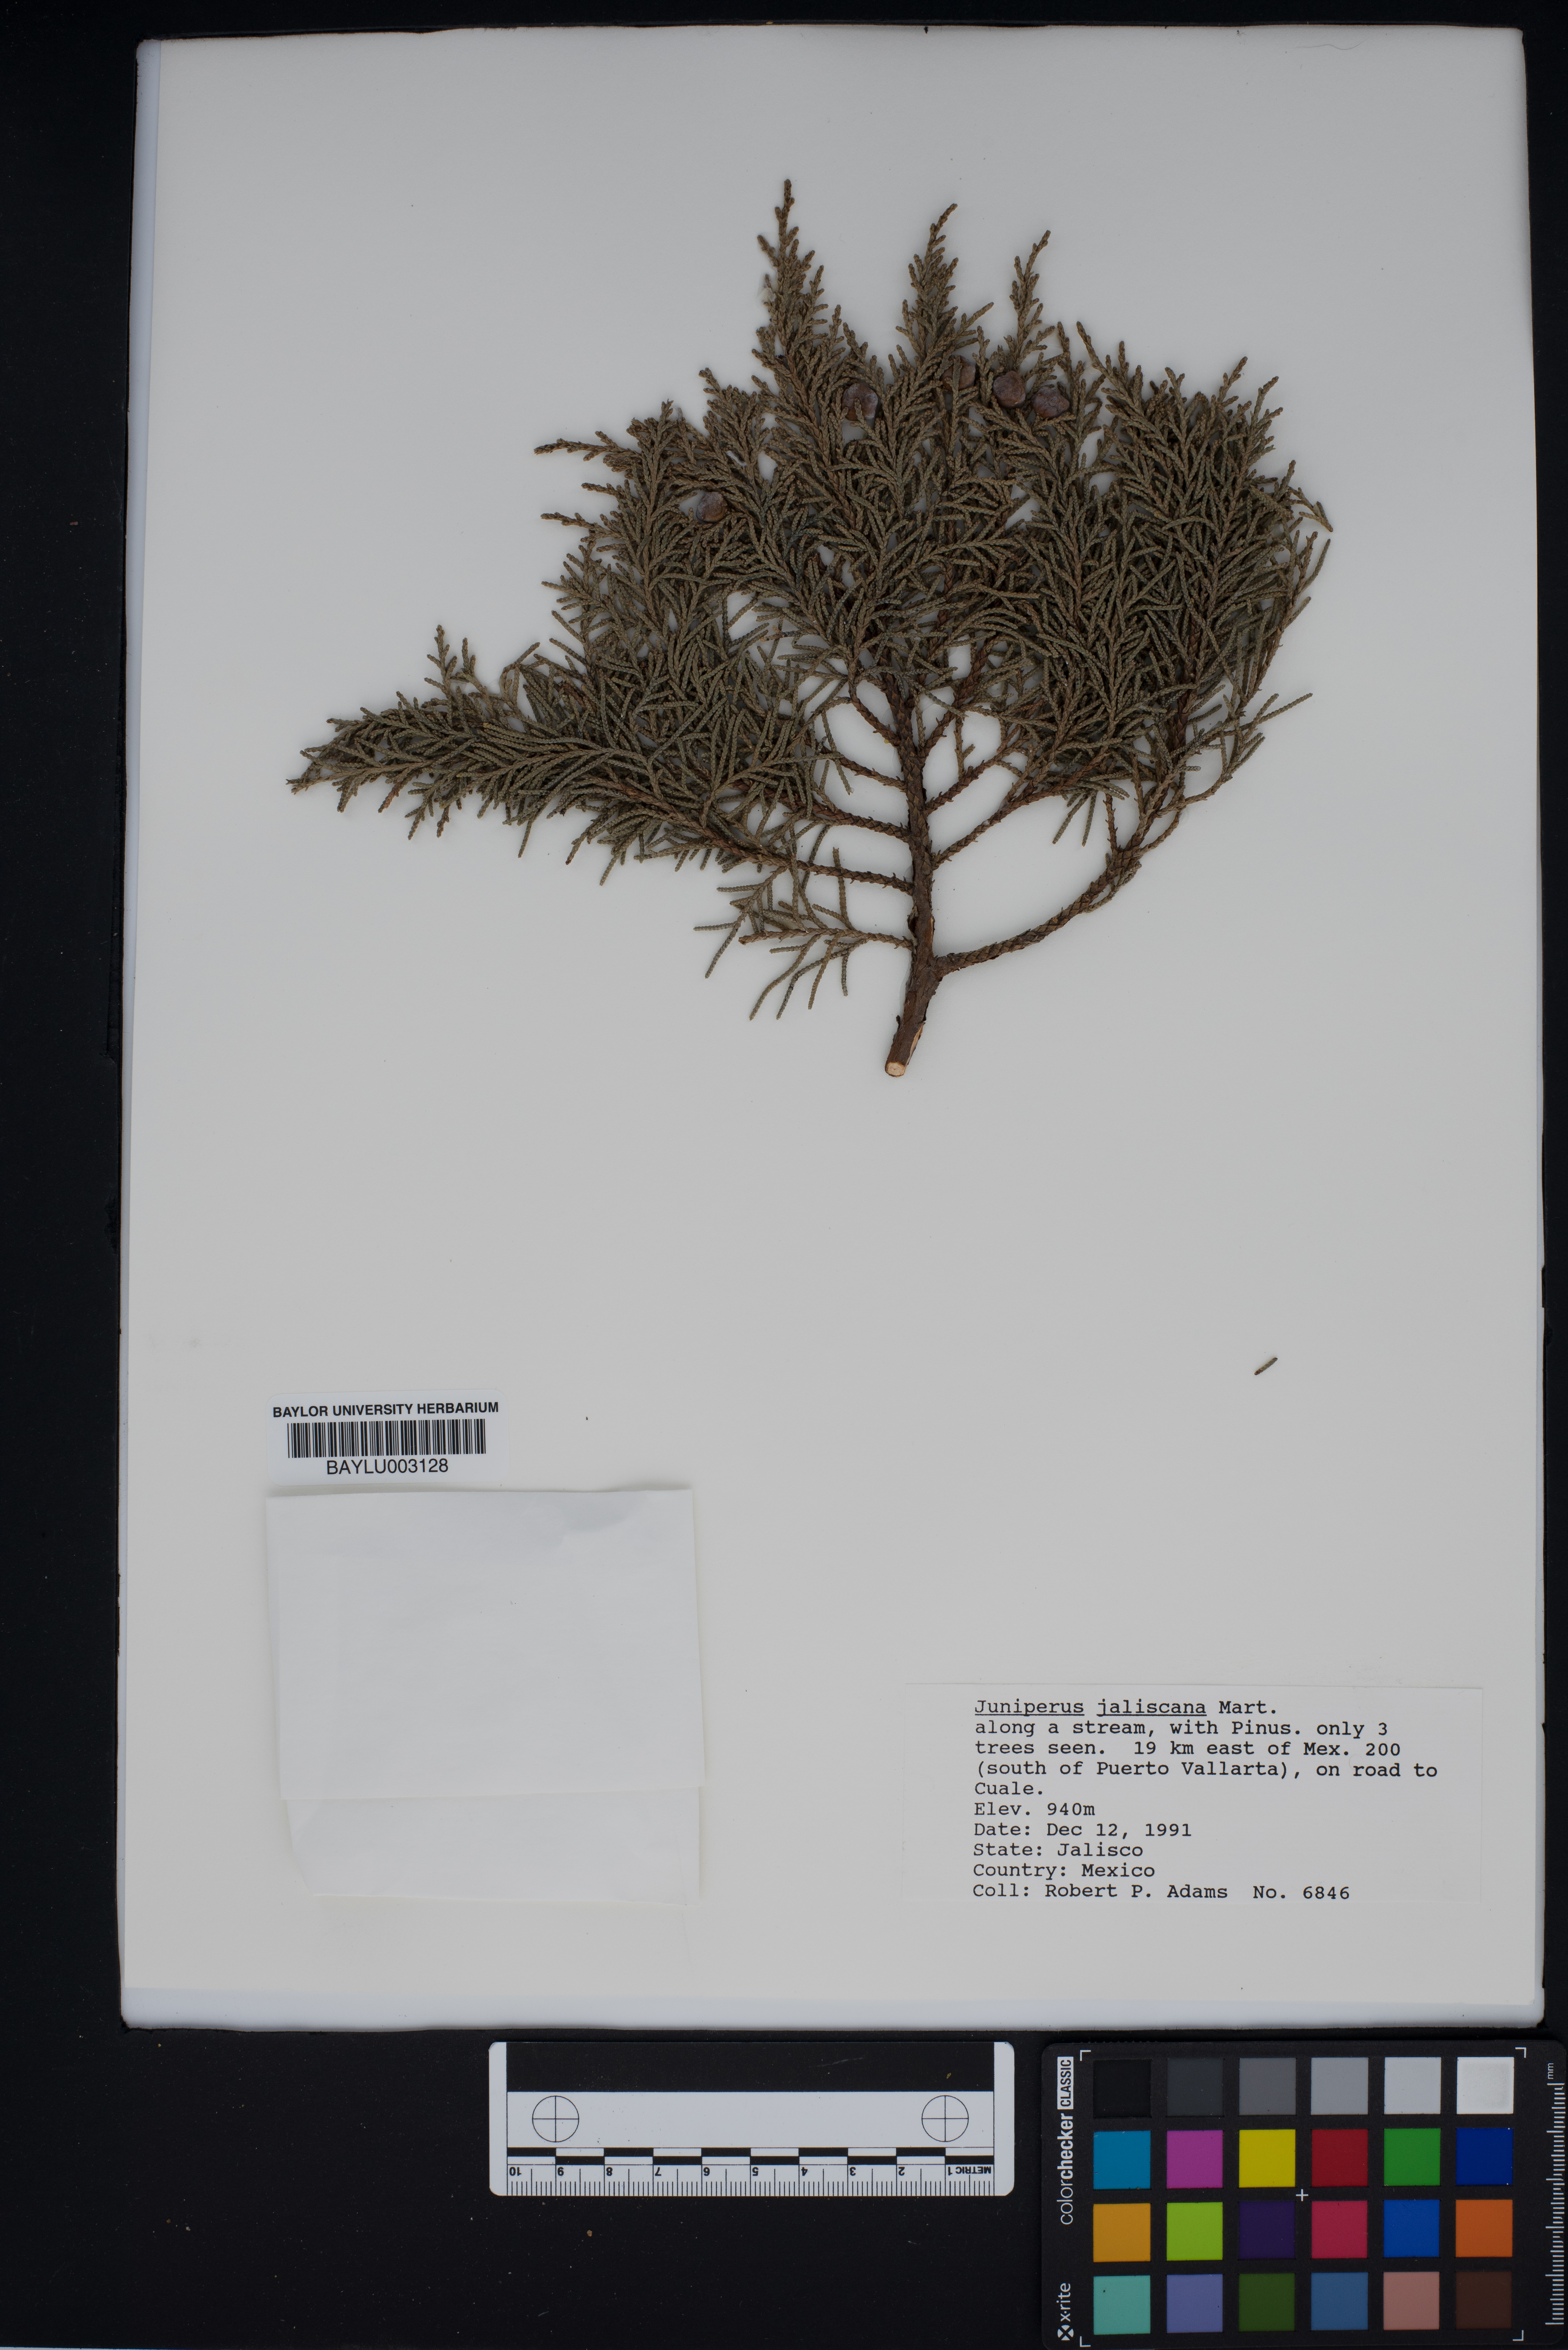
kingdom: Plantae
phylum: Tracheophyta
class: Pinopsida
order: Pinales
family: Cupressaceae
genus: Juniperus
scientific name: Juniperus jaliscana
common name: Jalisco juniper
